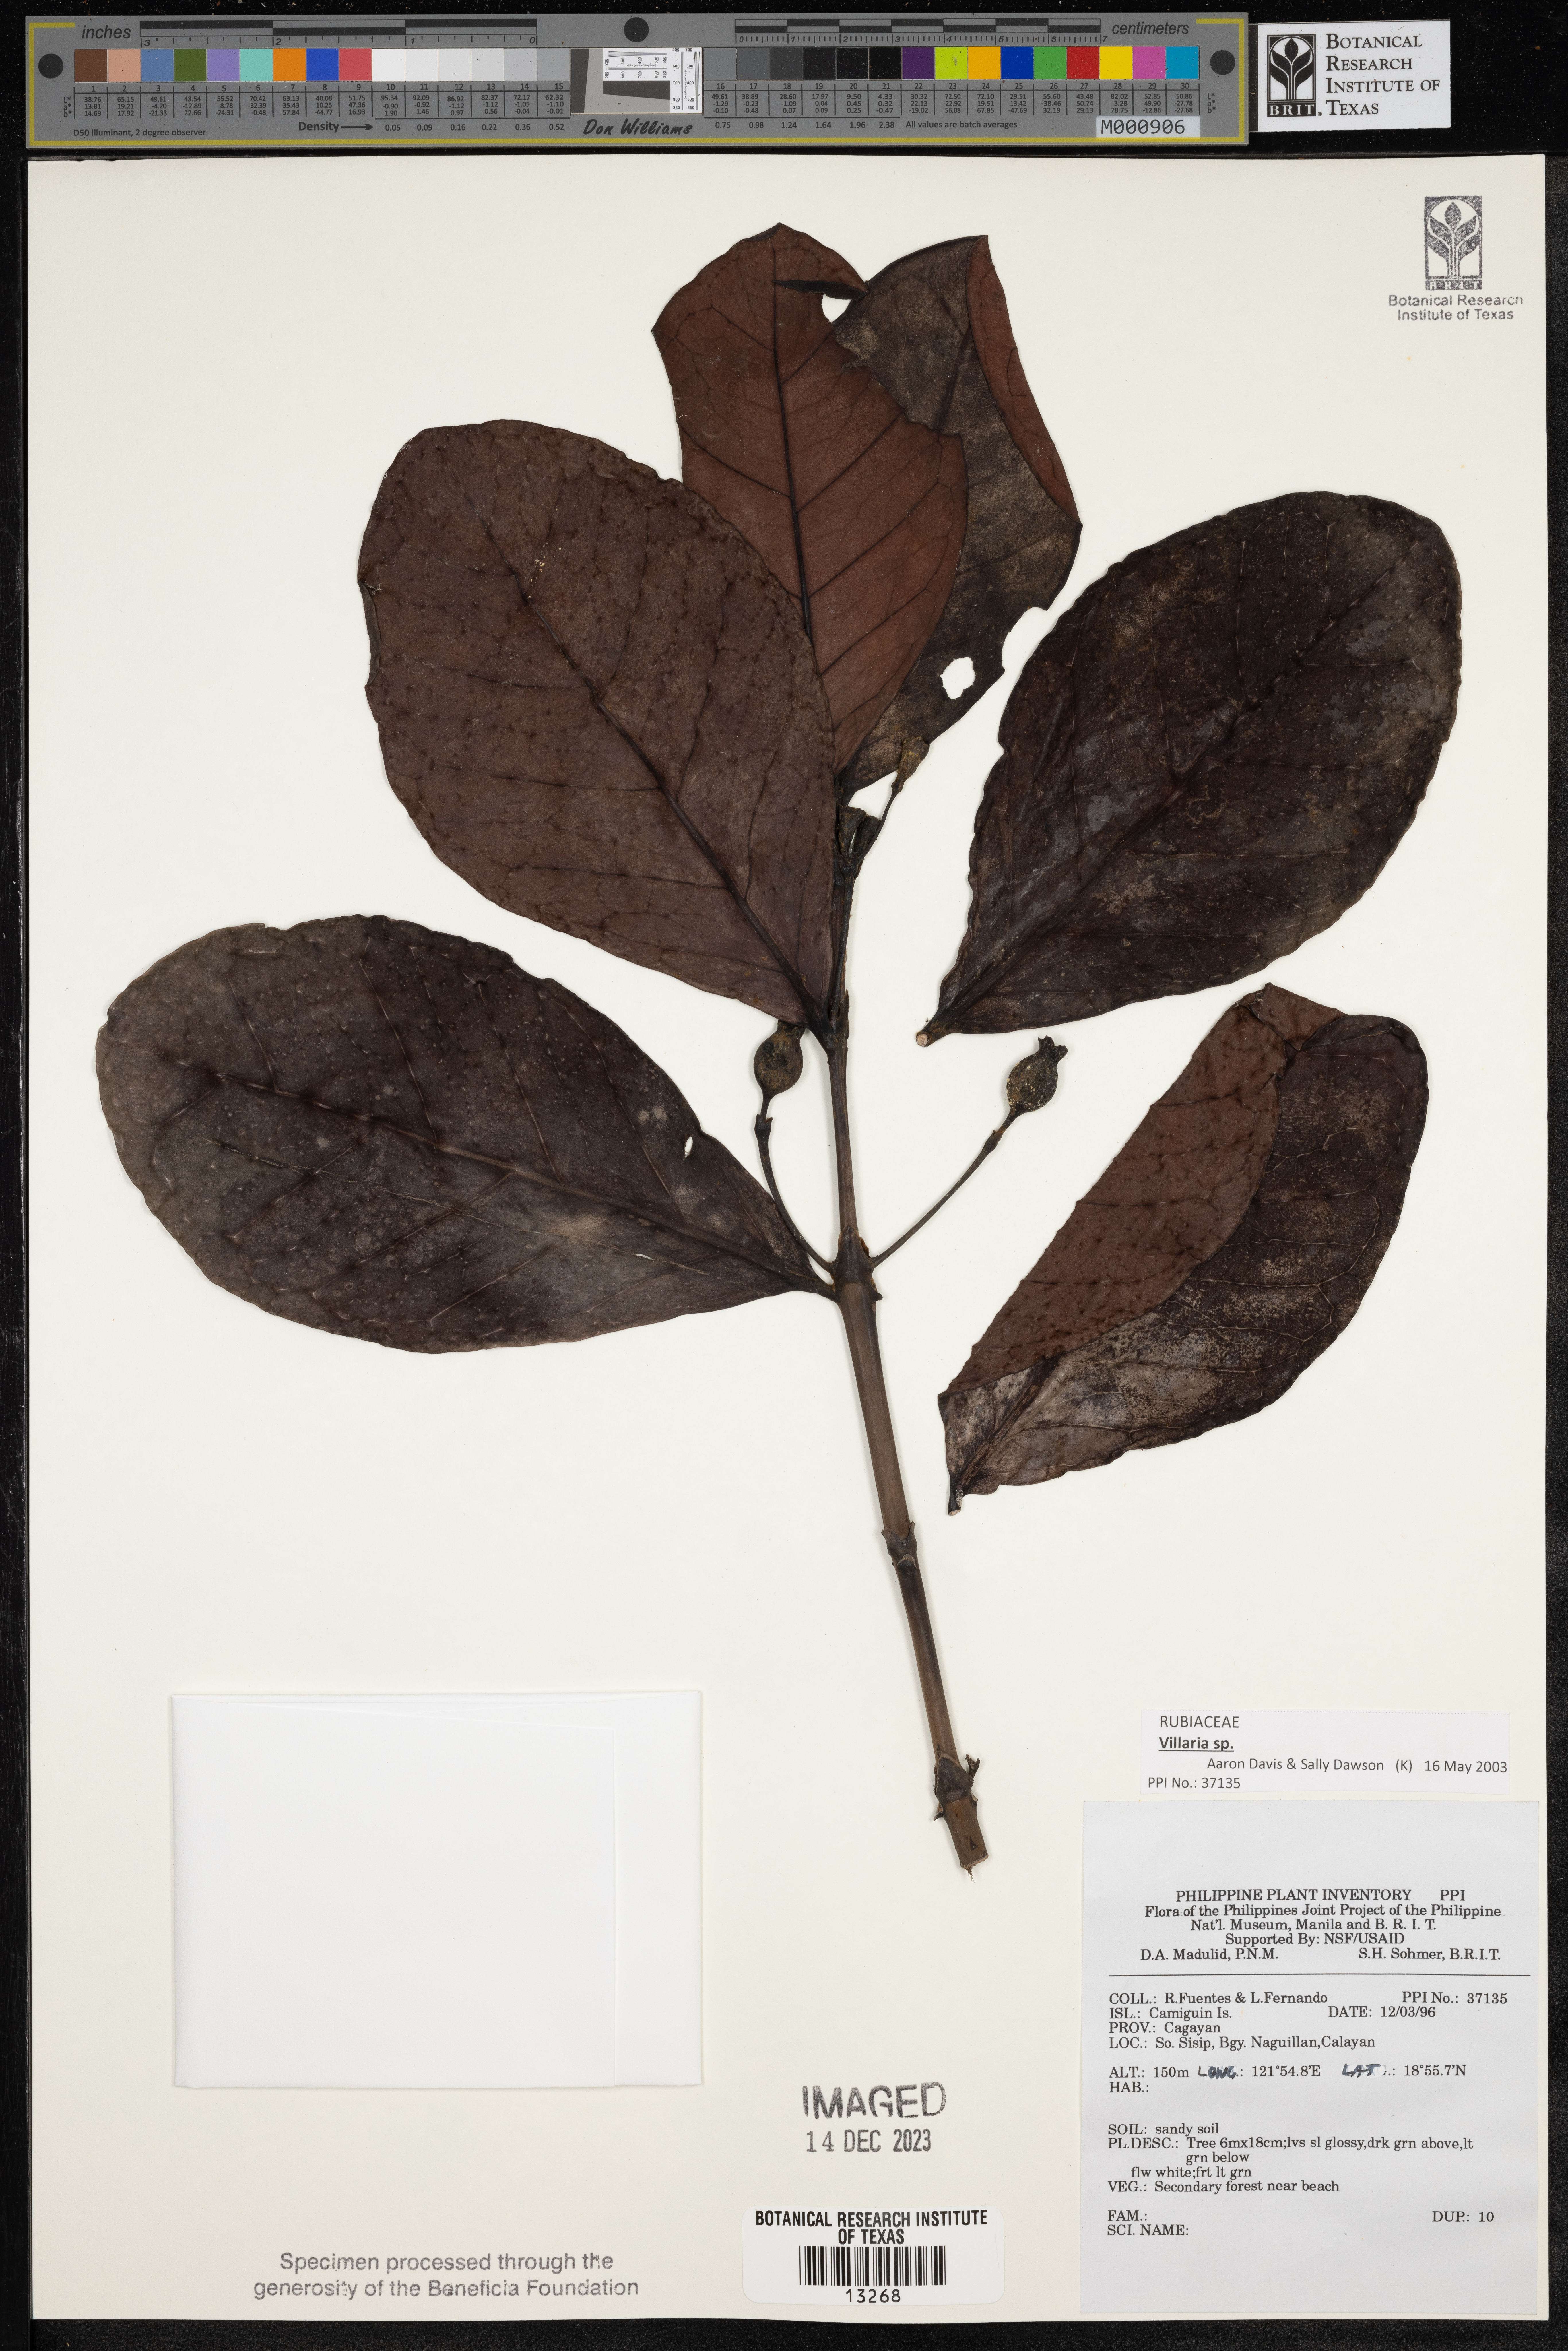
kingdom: Plantae
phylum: Tracheophyta
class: Magnoliopsida
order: Gentianales
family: Rubiaceae
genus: Villaria
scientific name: Villaria
